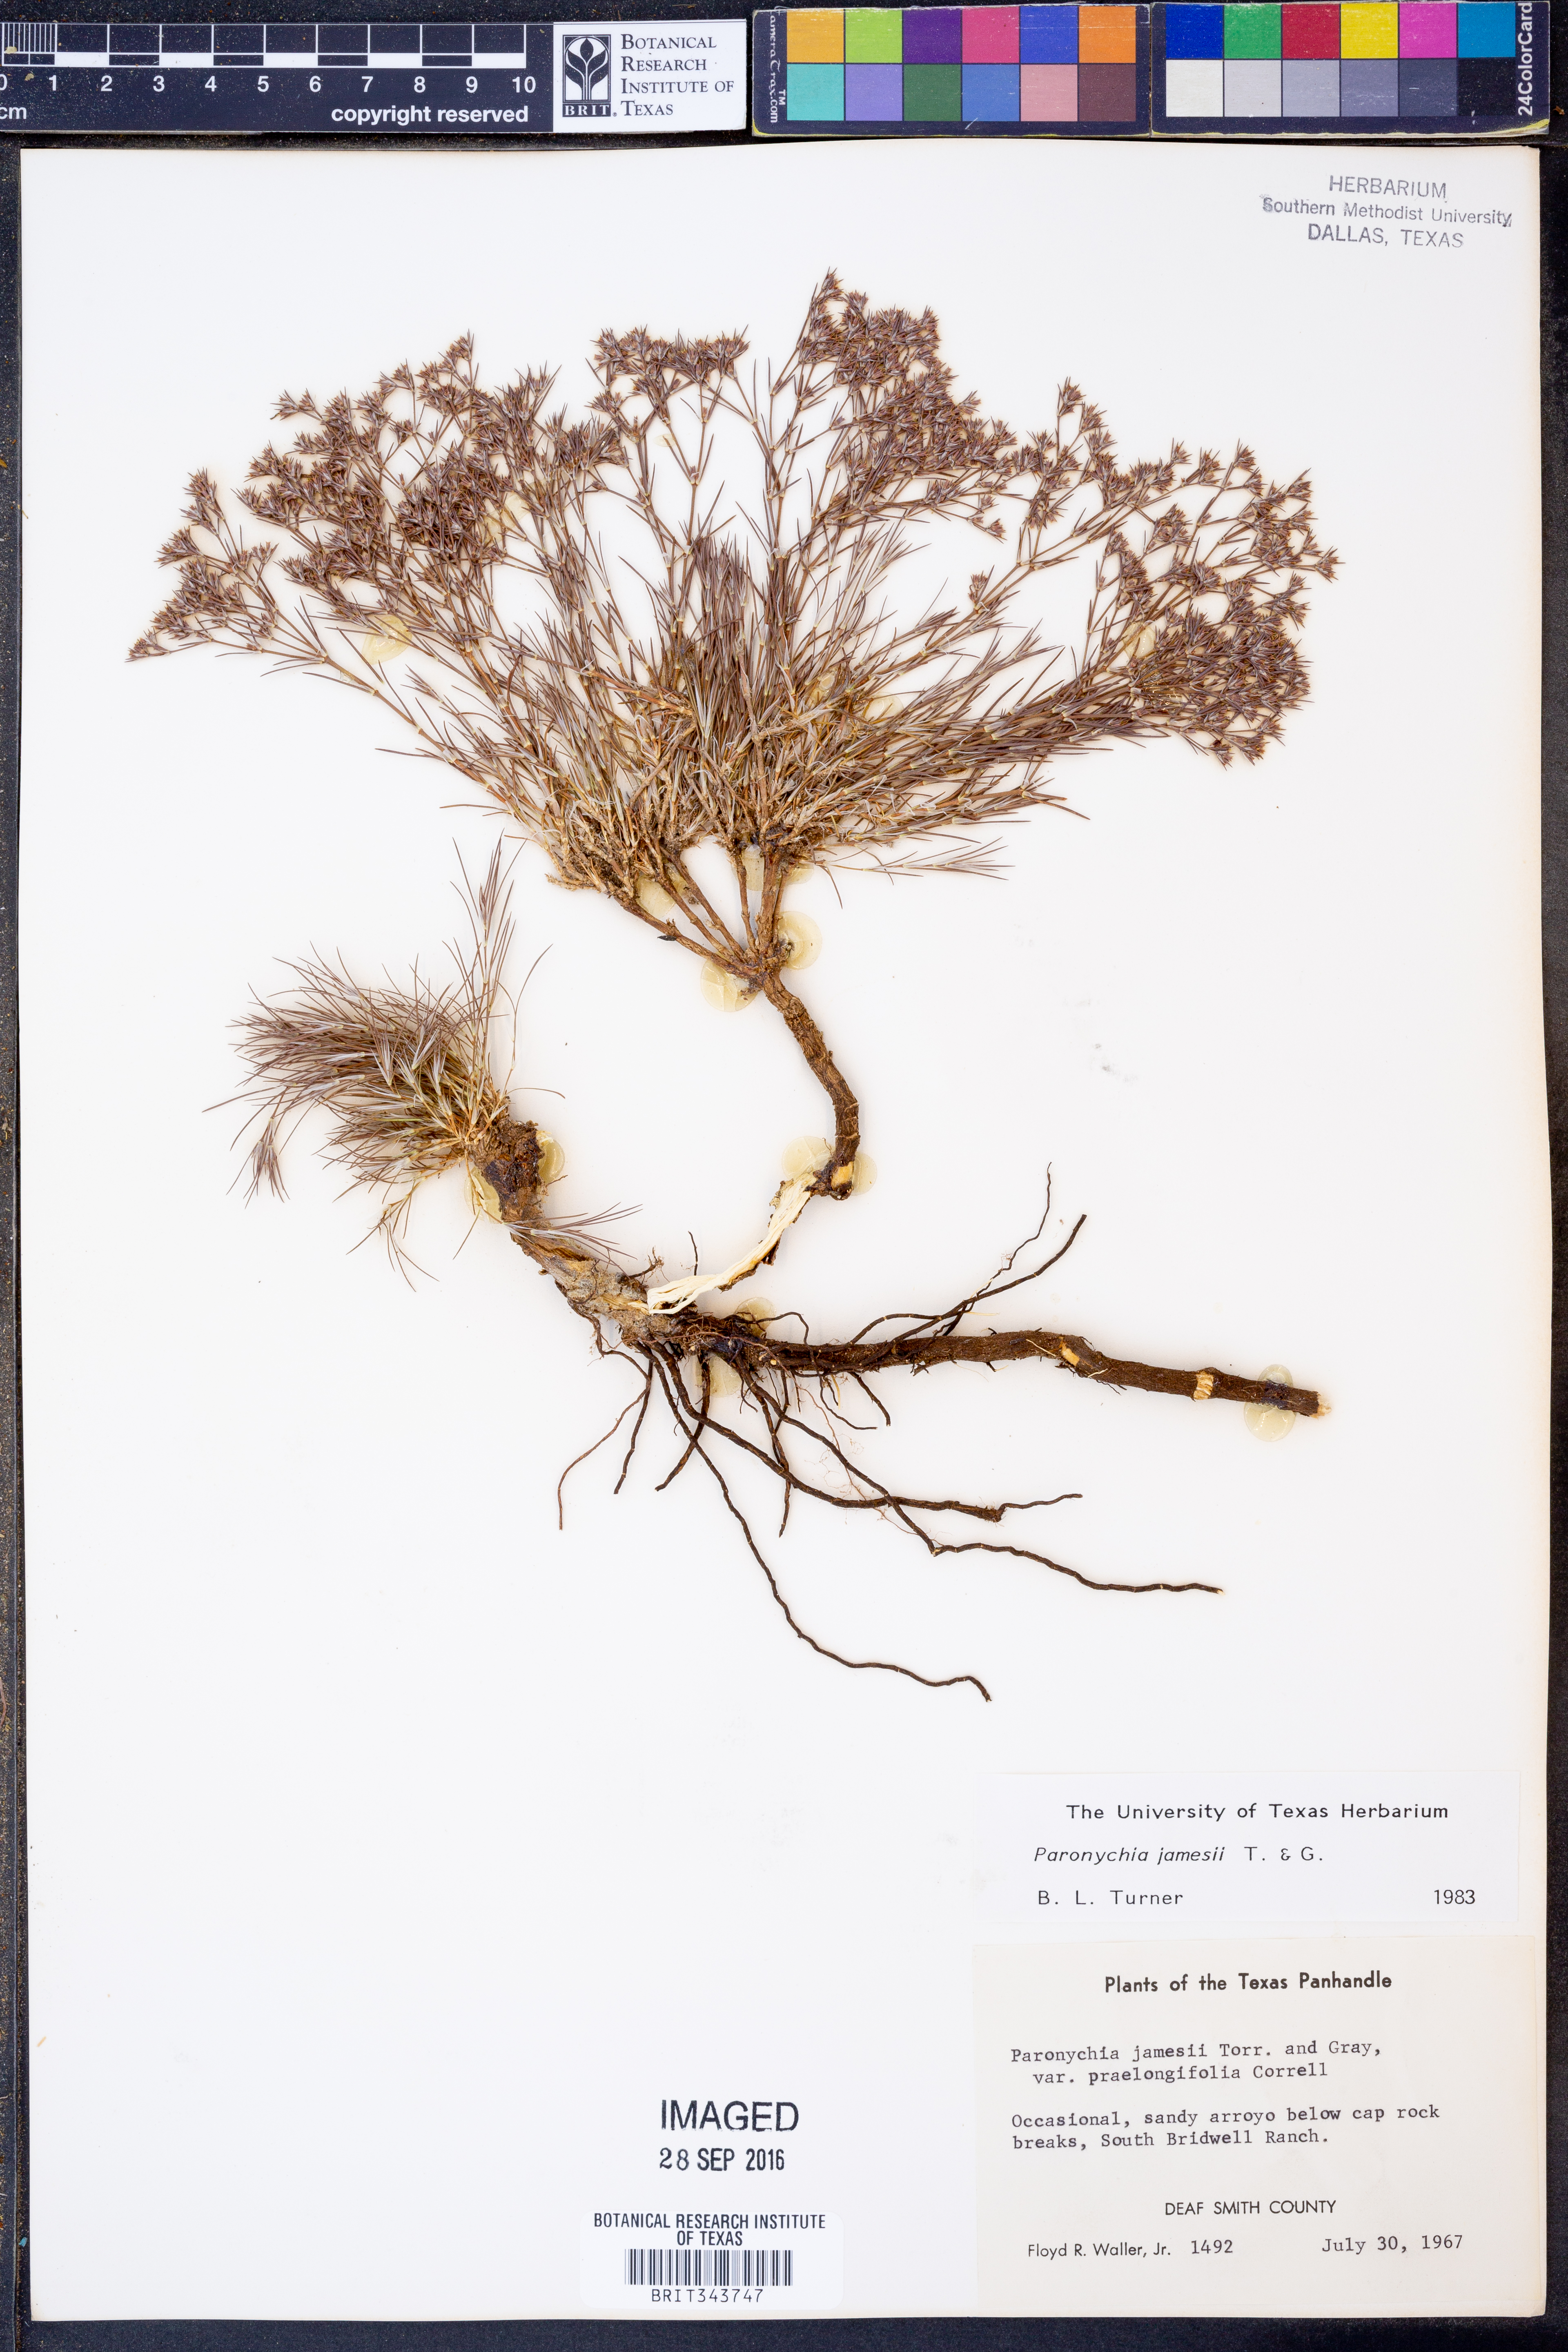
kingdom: Plantae
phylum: Tracheophyta
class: Magnoliopsida
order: Caryophyllales
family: Caryophyllaceae
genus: Paronychia
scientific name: Paronychia jamesii
